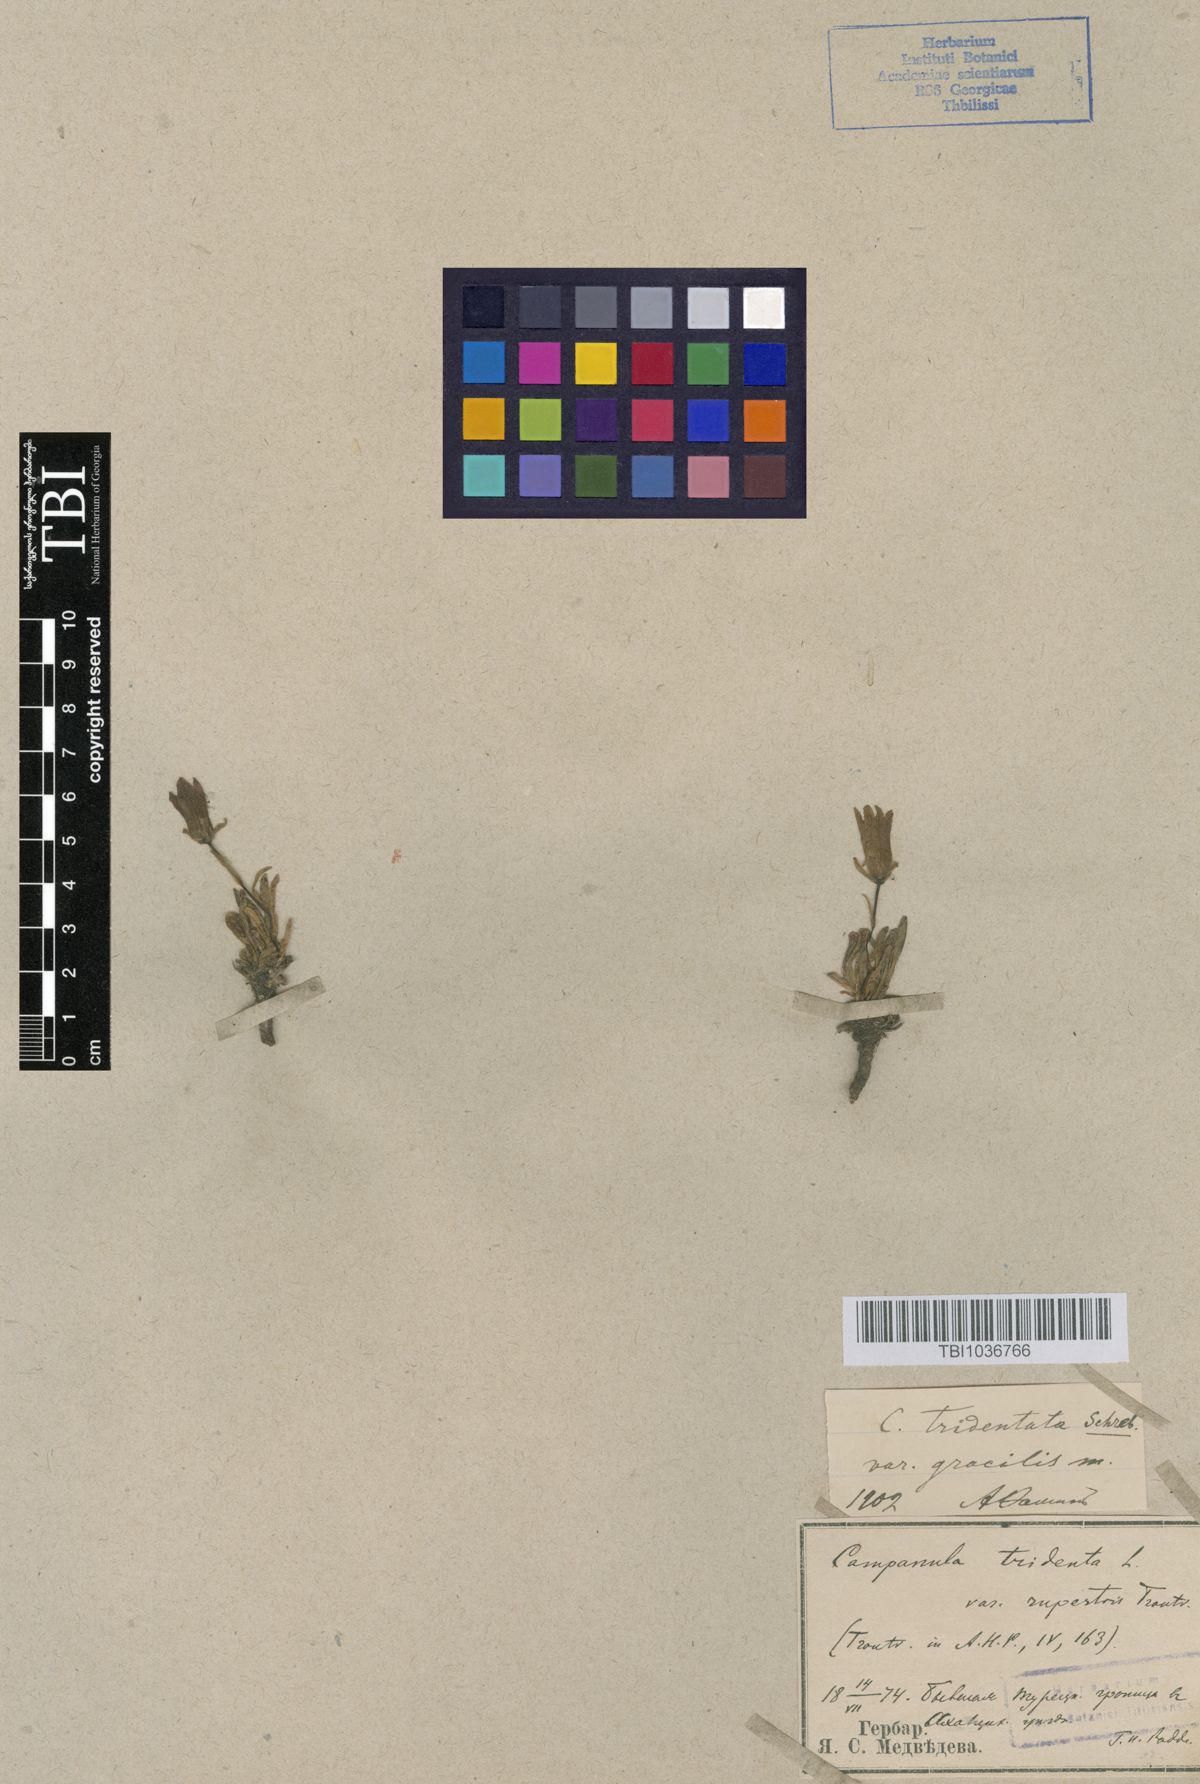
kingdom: Plantae
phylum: Tracheophyta
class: Magnoliopsida
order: Asterales
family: Campanulaceae
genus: Campanula
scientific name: Campanula tridentata
